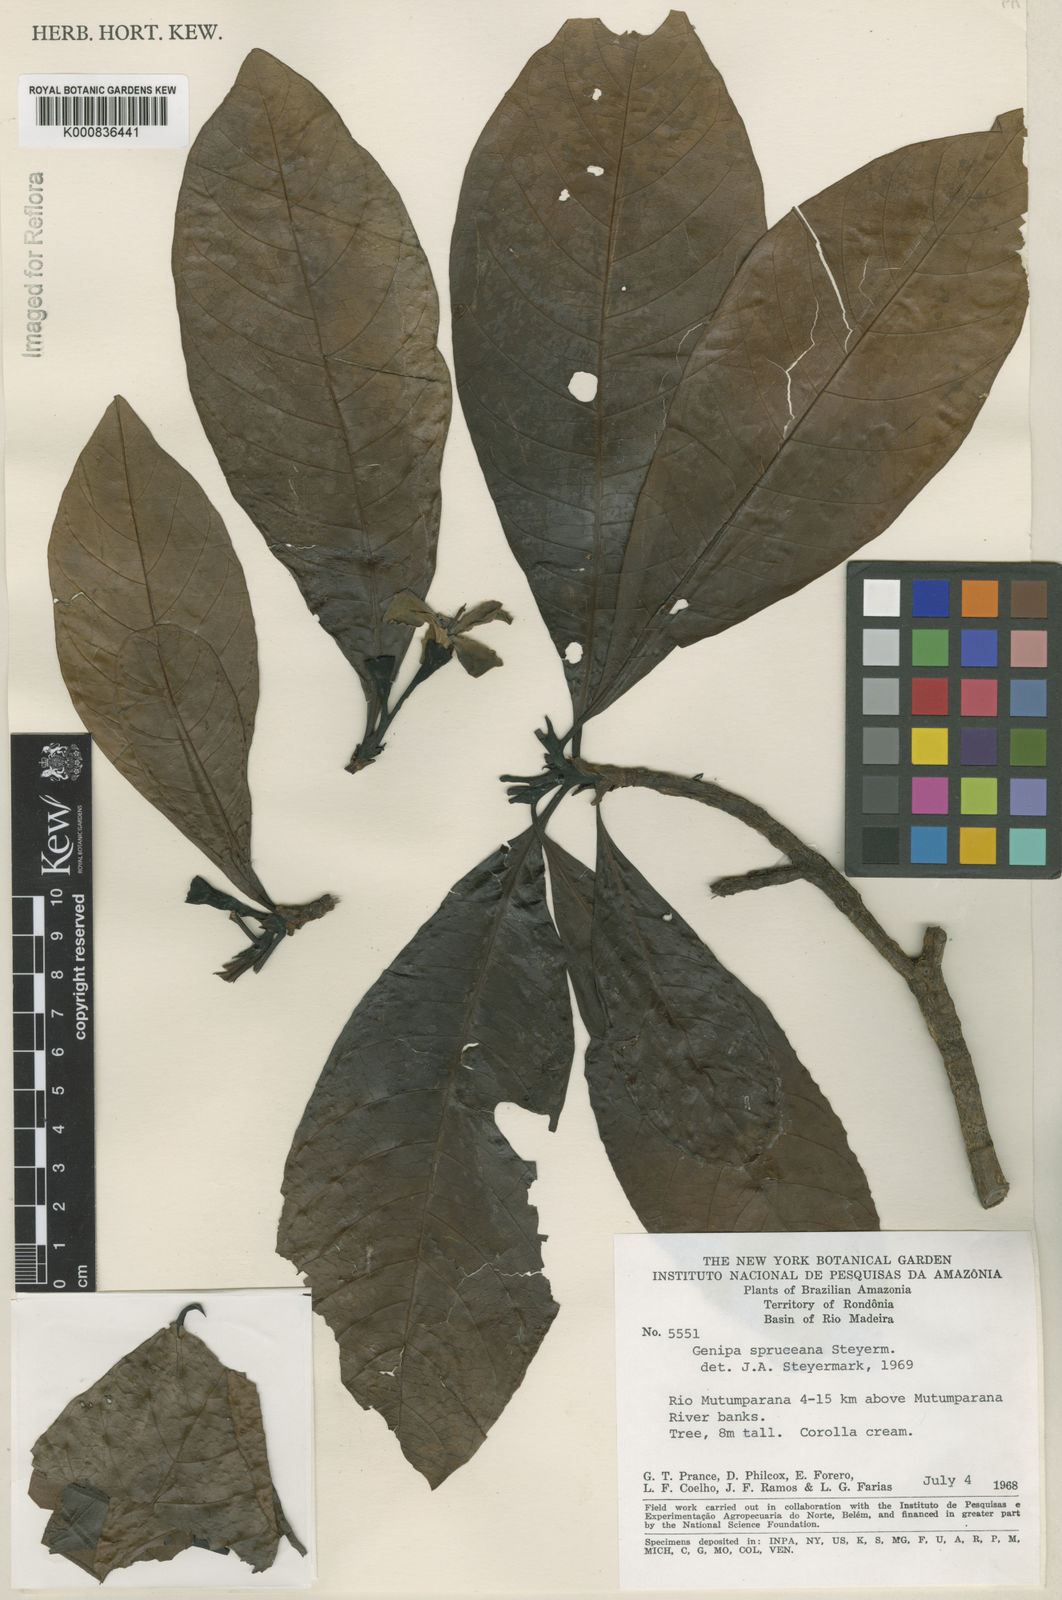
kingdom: Plantae
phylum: Tracheophyta
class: Magnoliopsida
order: Gentianales
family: Rubiaceae
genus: Genipa
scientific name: Genipa americana
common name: Genipap
